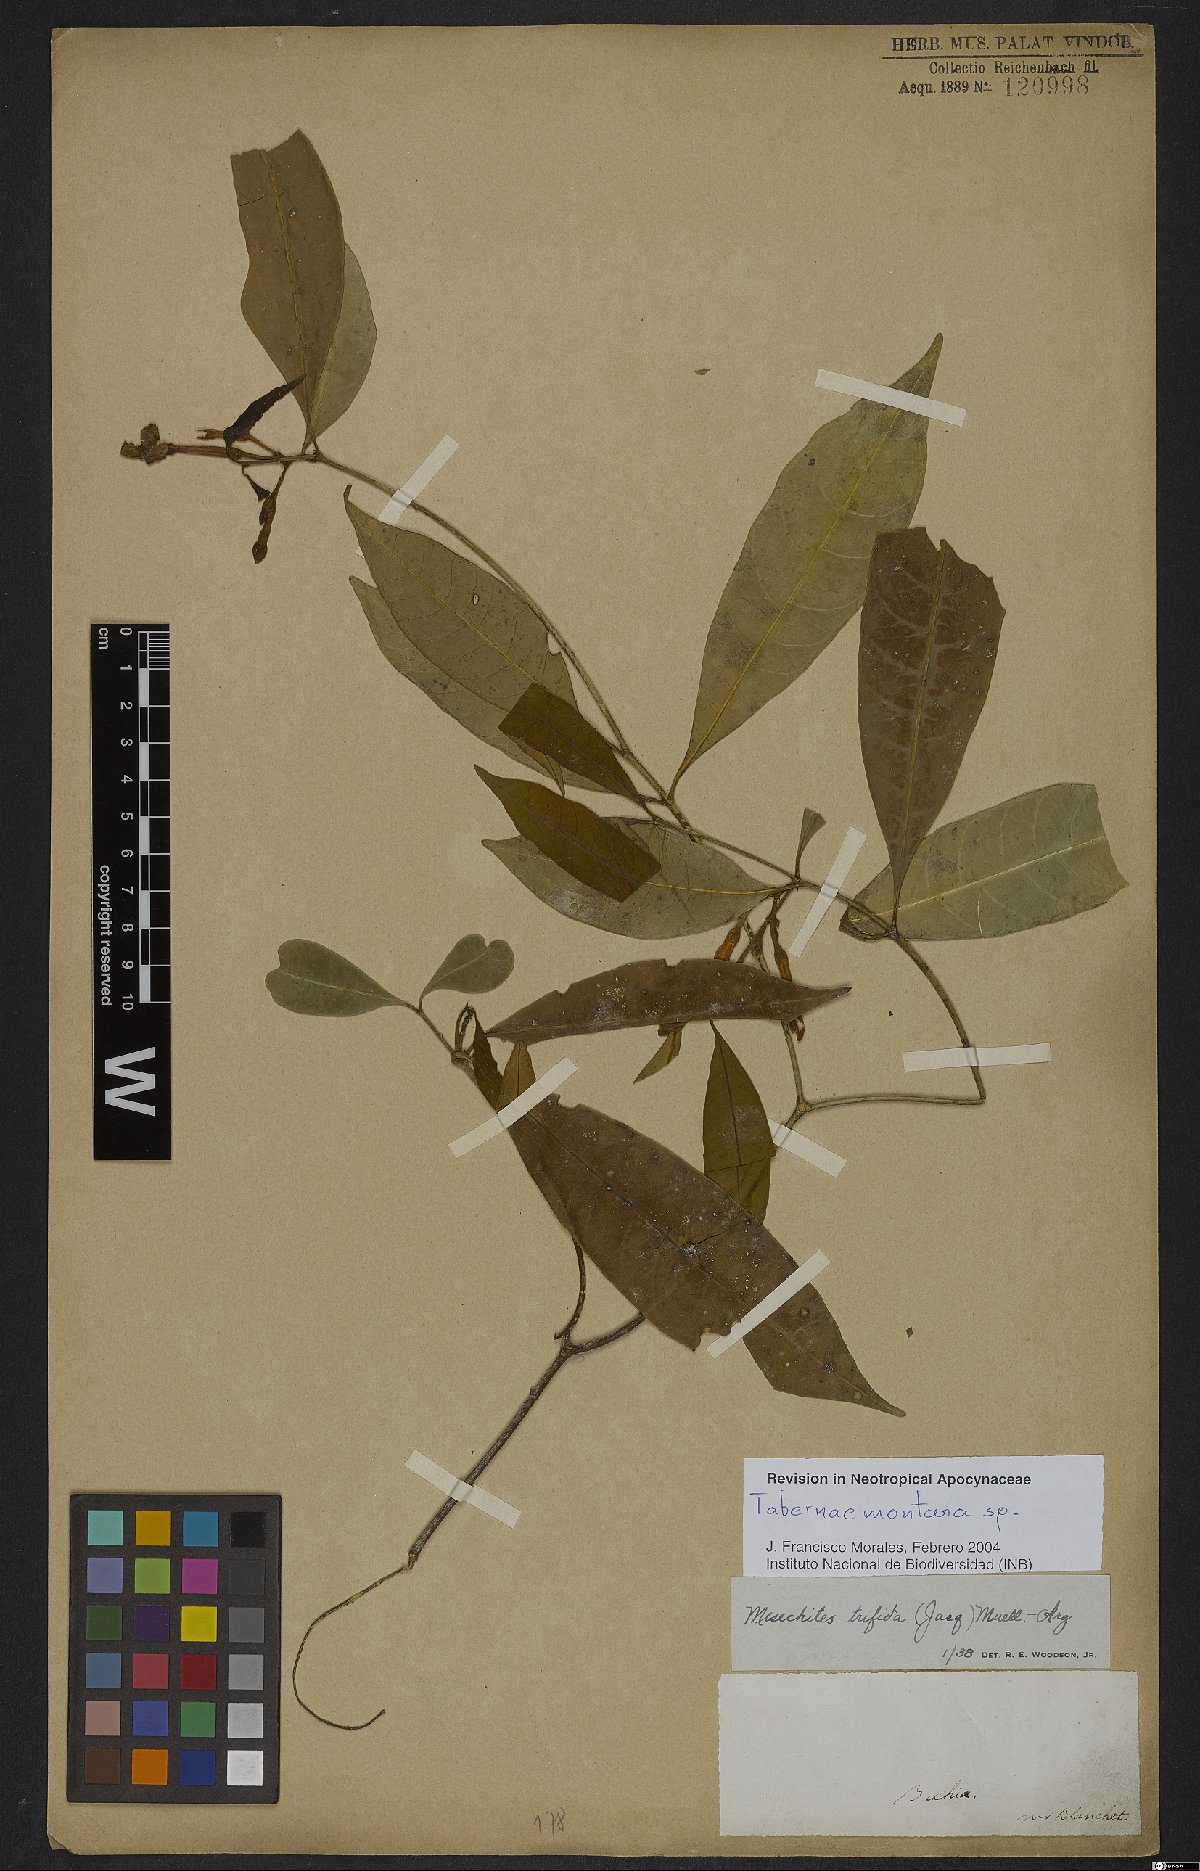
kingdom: Plantae
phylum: Tracheophyta
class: Magnoliopsida
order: Gentianales
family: Apocynaceae
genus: Tabernaemontana
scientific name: Tabernaemontana
